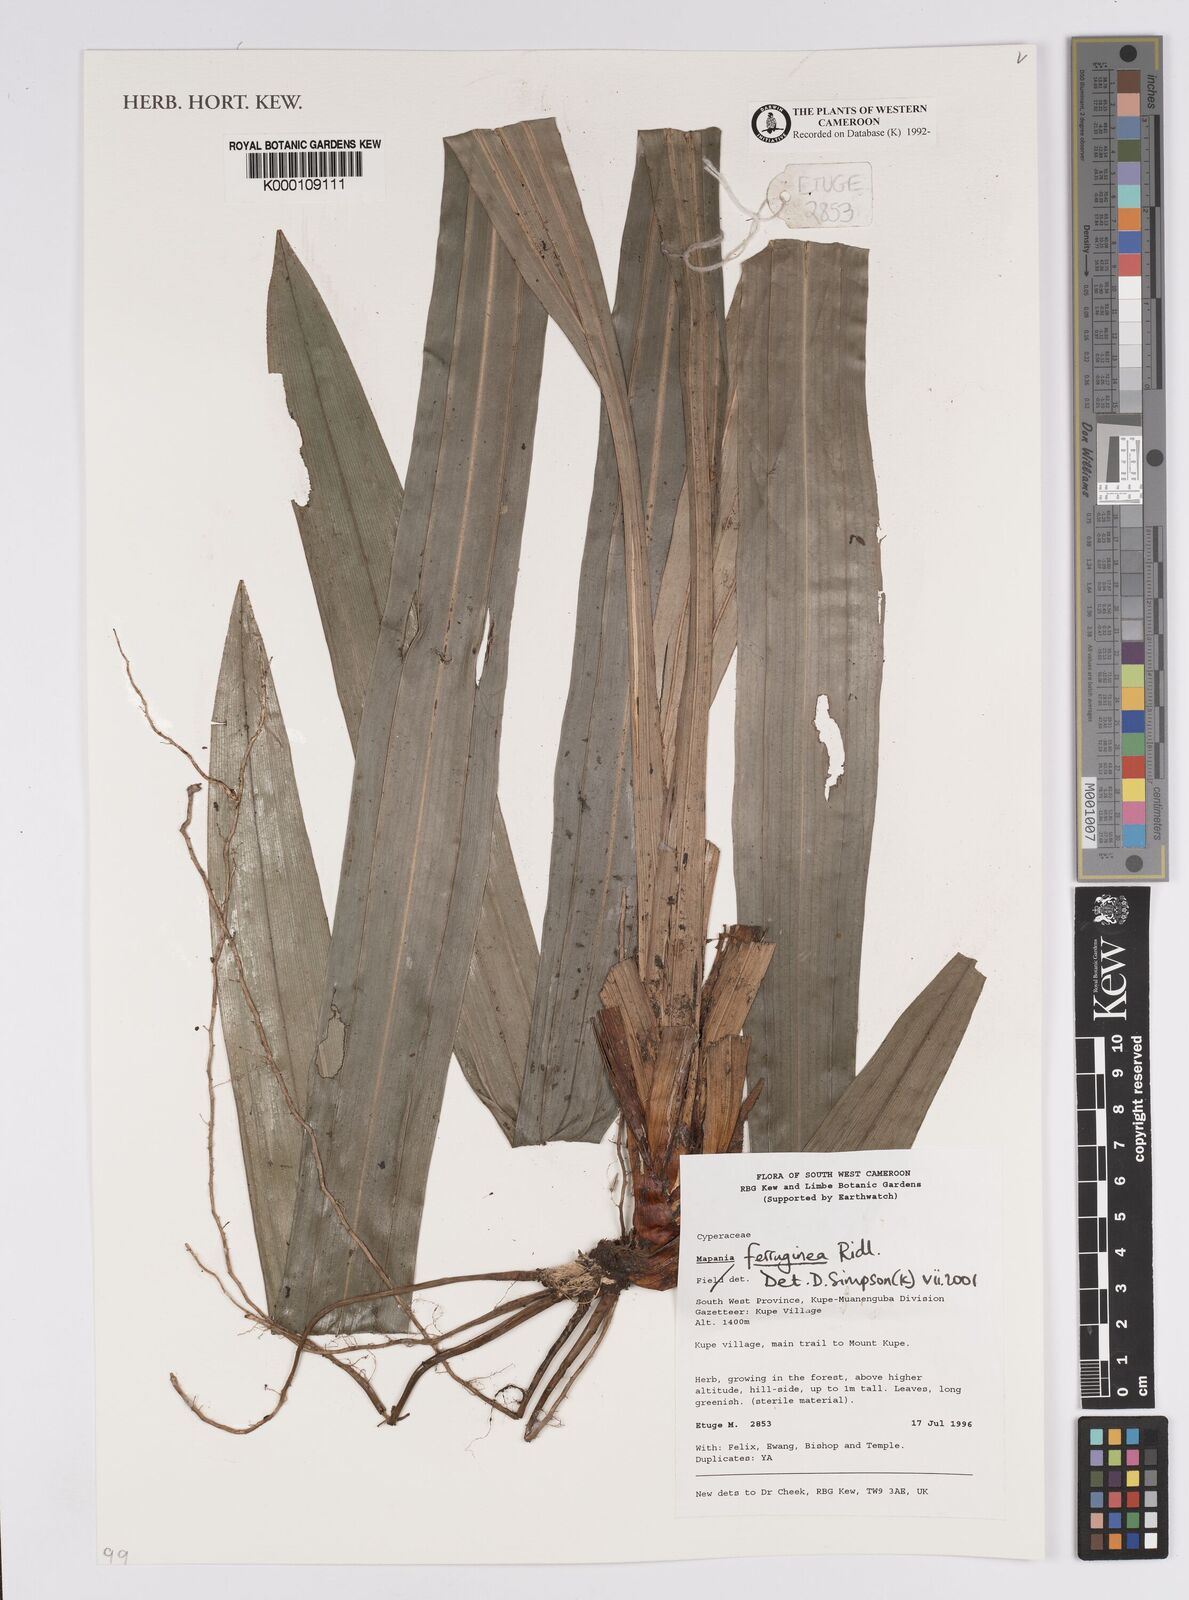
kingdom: Plantae
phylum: Tracheophyta
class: Liliopsida
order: Poales
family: Cyperaceae
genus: Mapania
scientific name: Mapania ferruginea
